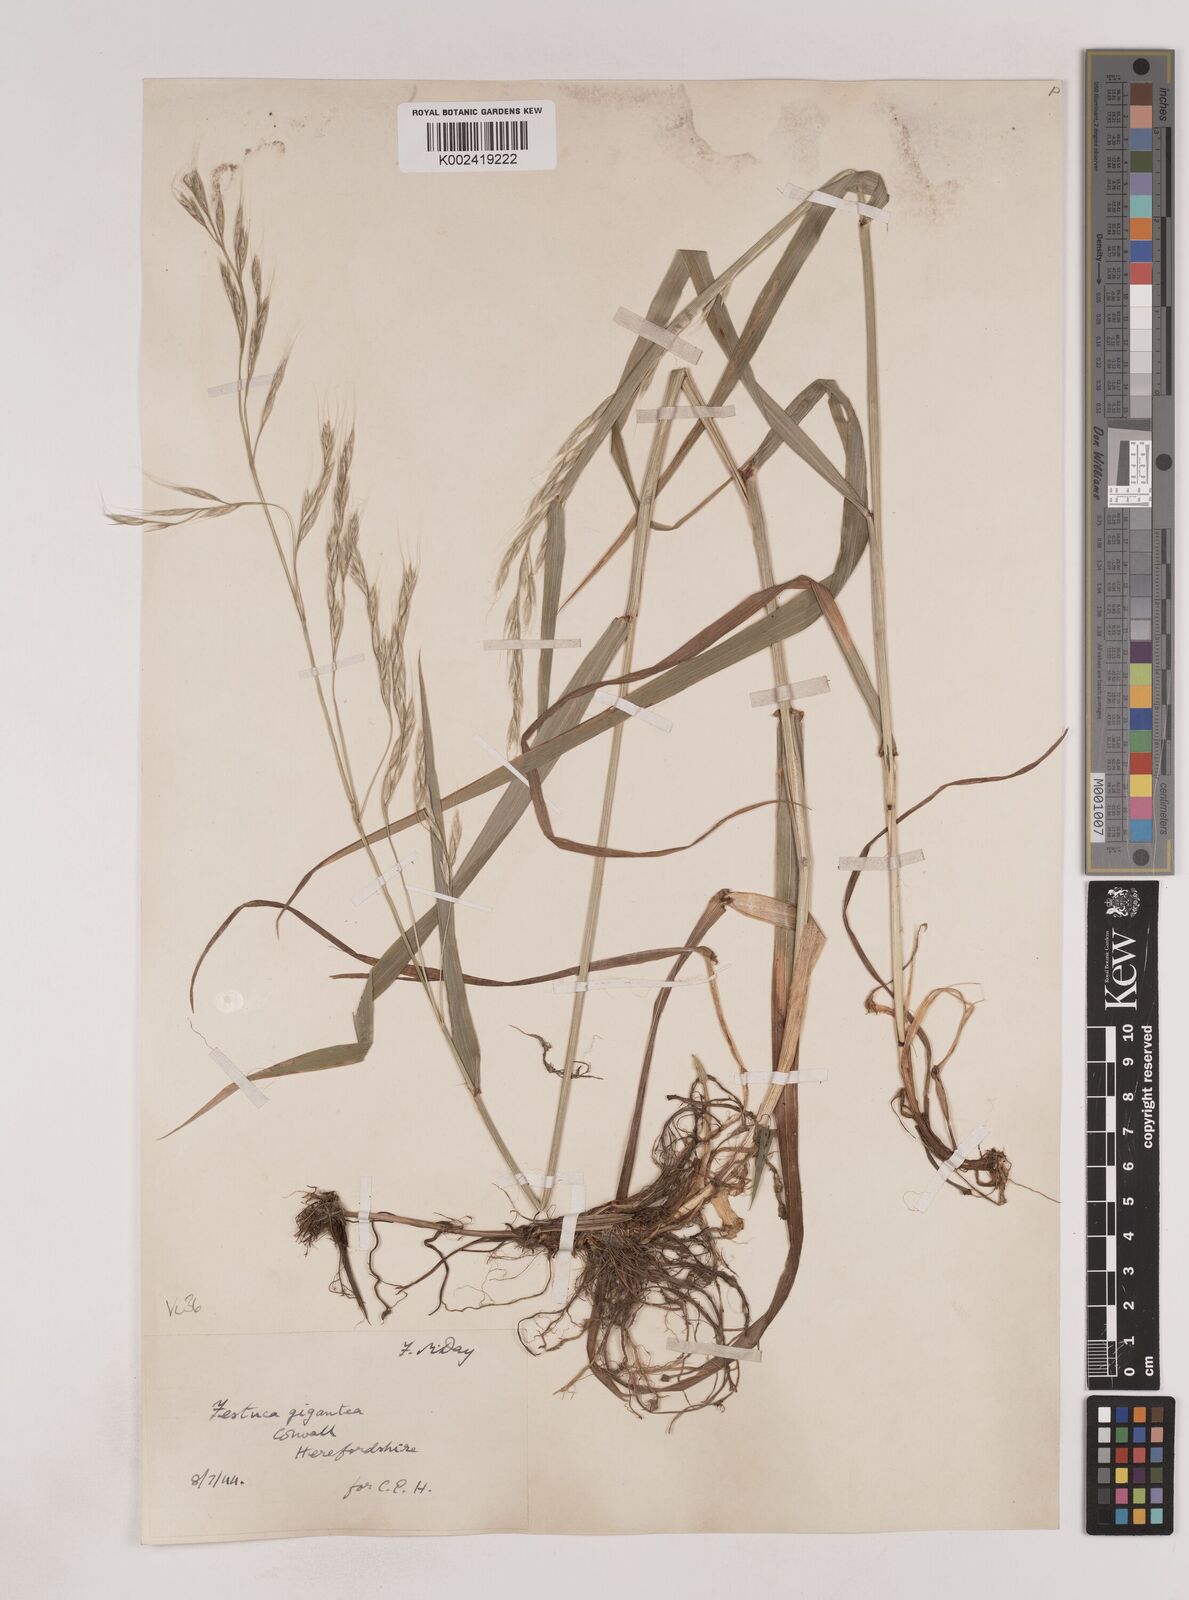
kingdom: Plantae
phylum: Tracheophyta
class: Liliopsida
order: Poales
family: Poaceae
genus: Lolium
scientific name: Lolium giganteum
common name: Giant fescue
